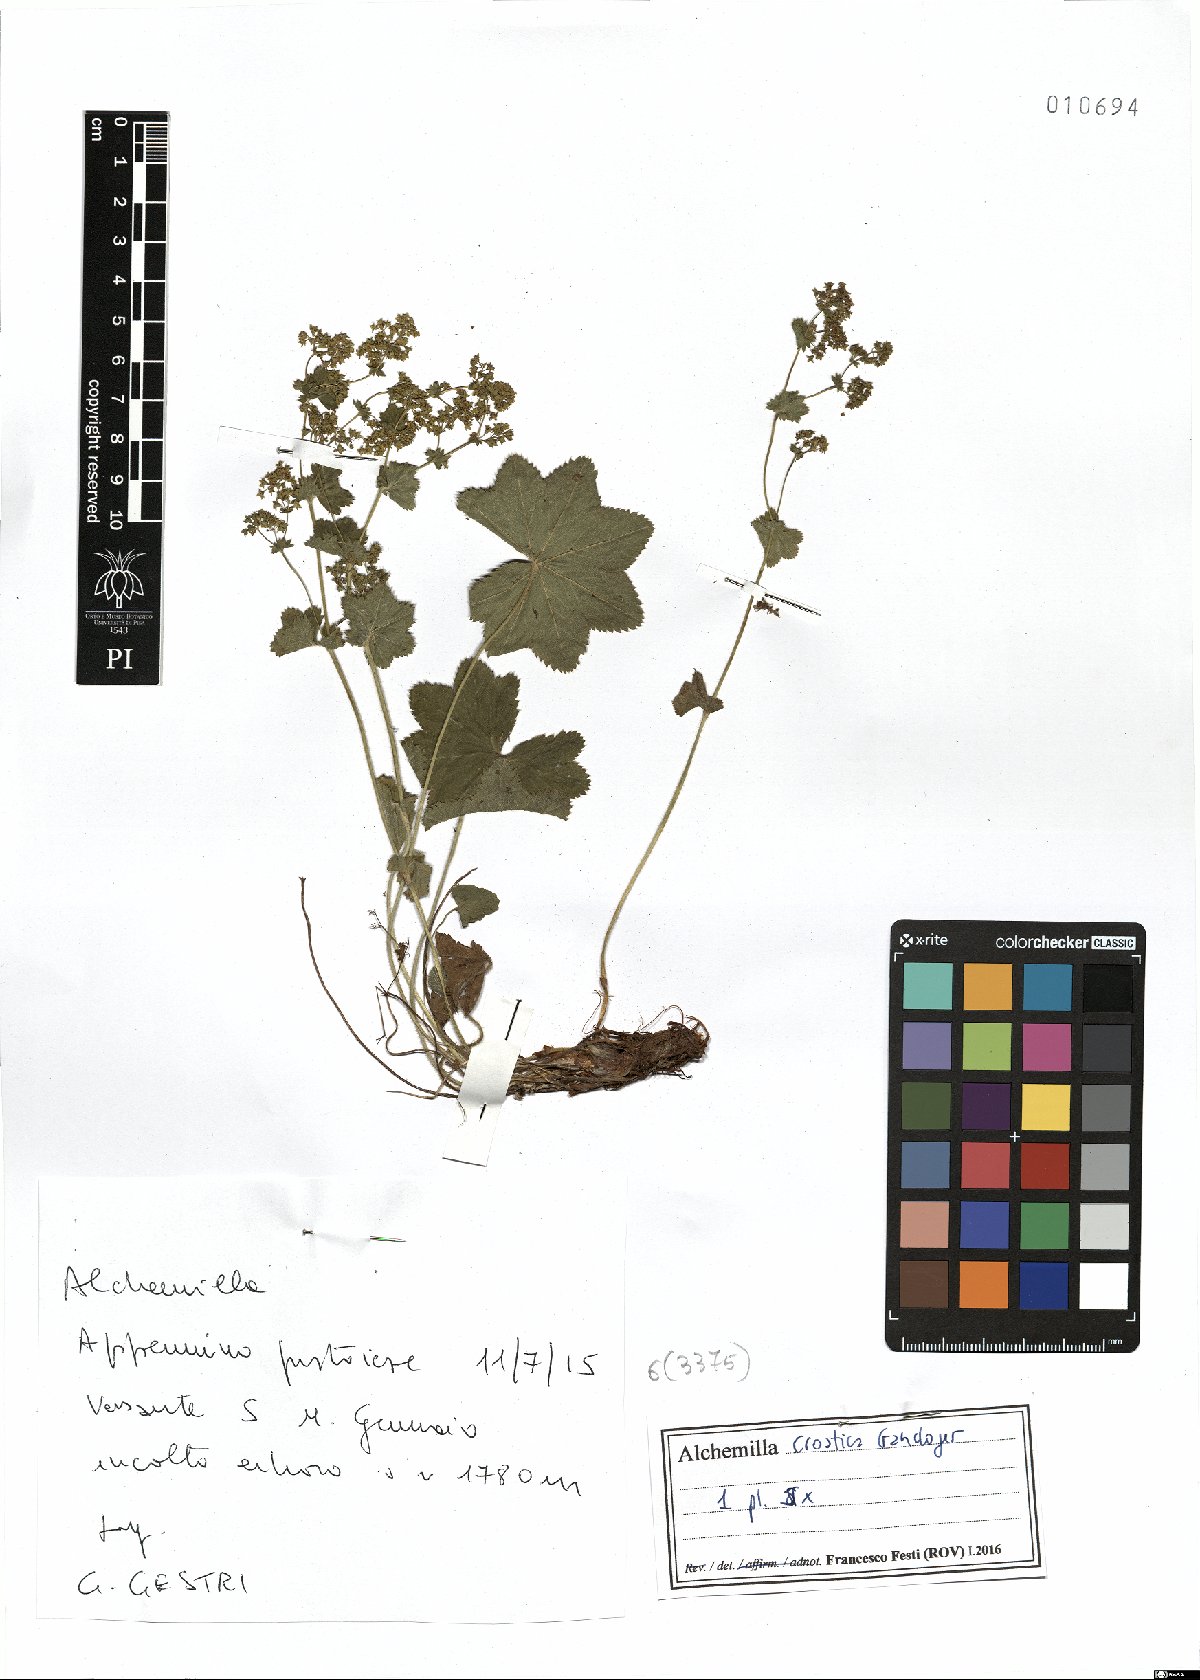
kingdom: Plantae
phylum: Tracheophyta
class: Magnoliopsida
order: Rosales
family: Rosaceae
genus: Alchemilla
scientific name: Alchemilla croatica
